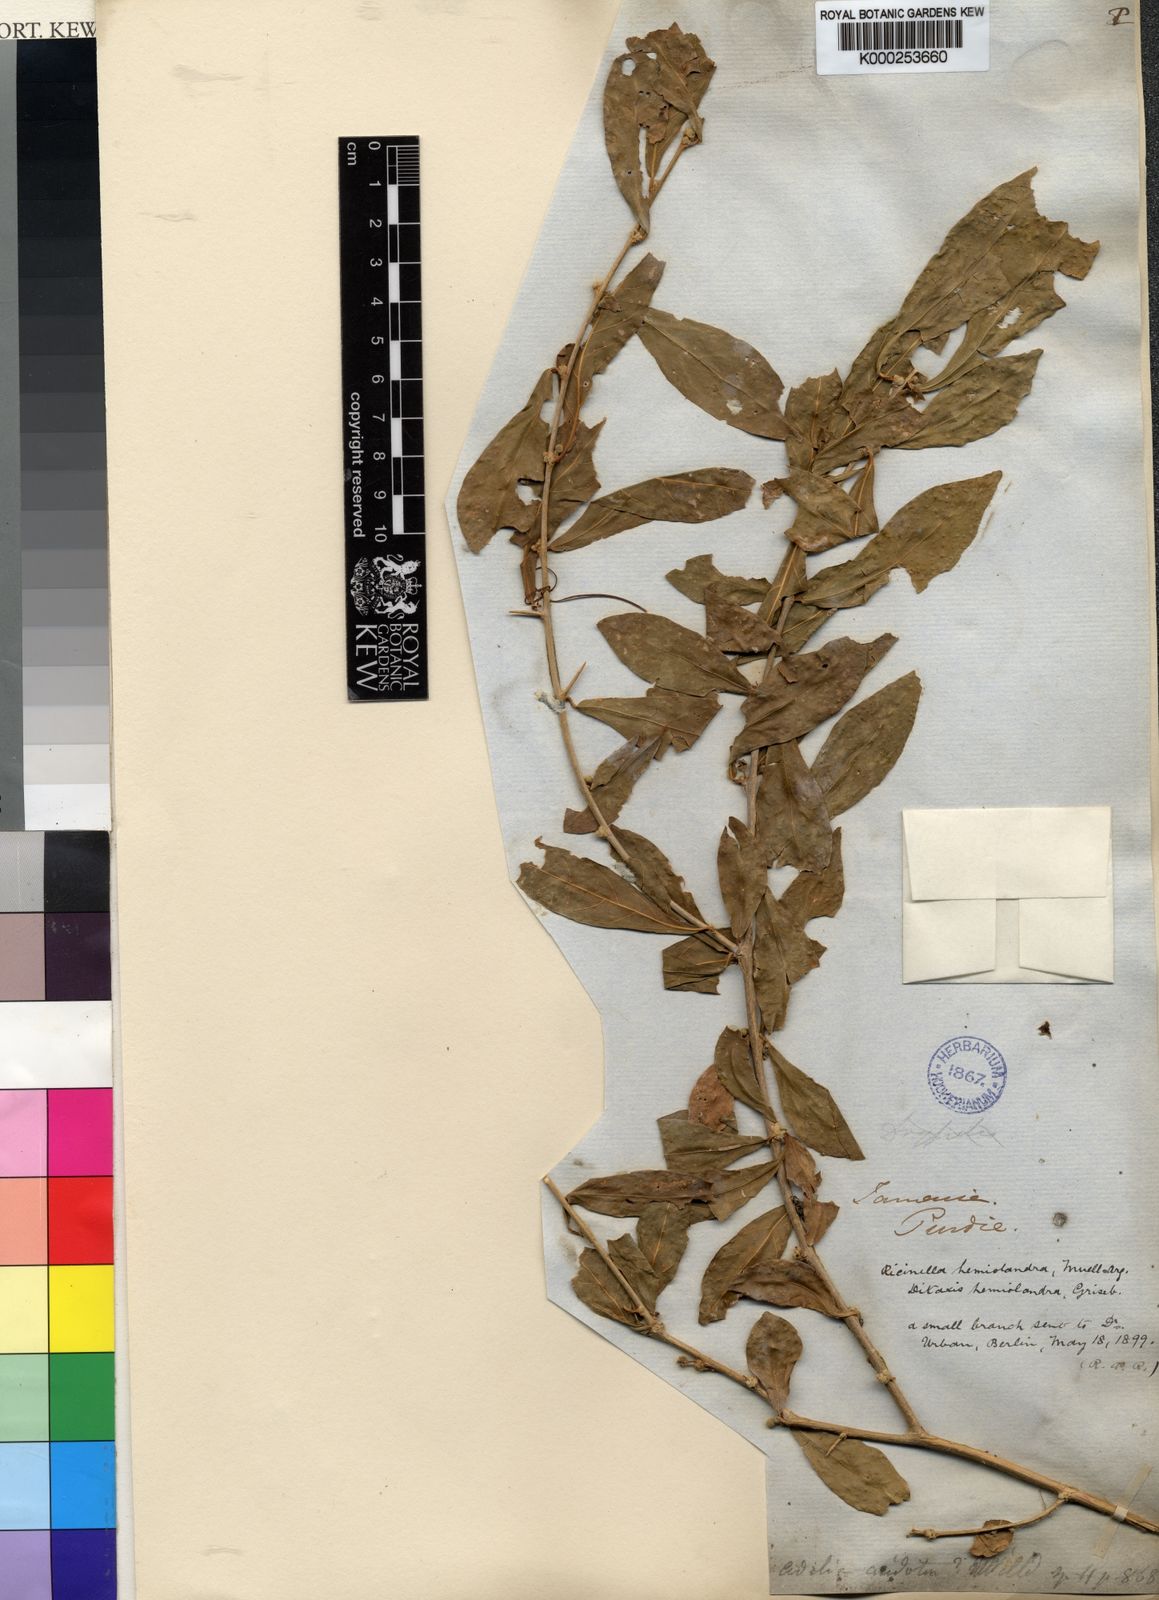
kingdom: Plantae
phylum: Tracheophyta
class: Magnoliopsida
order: Malpighiales
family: Euphorbiaceae
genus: Adelia
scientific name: Adelia ricinella
